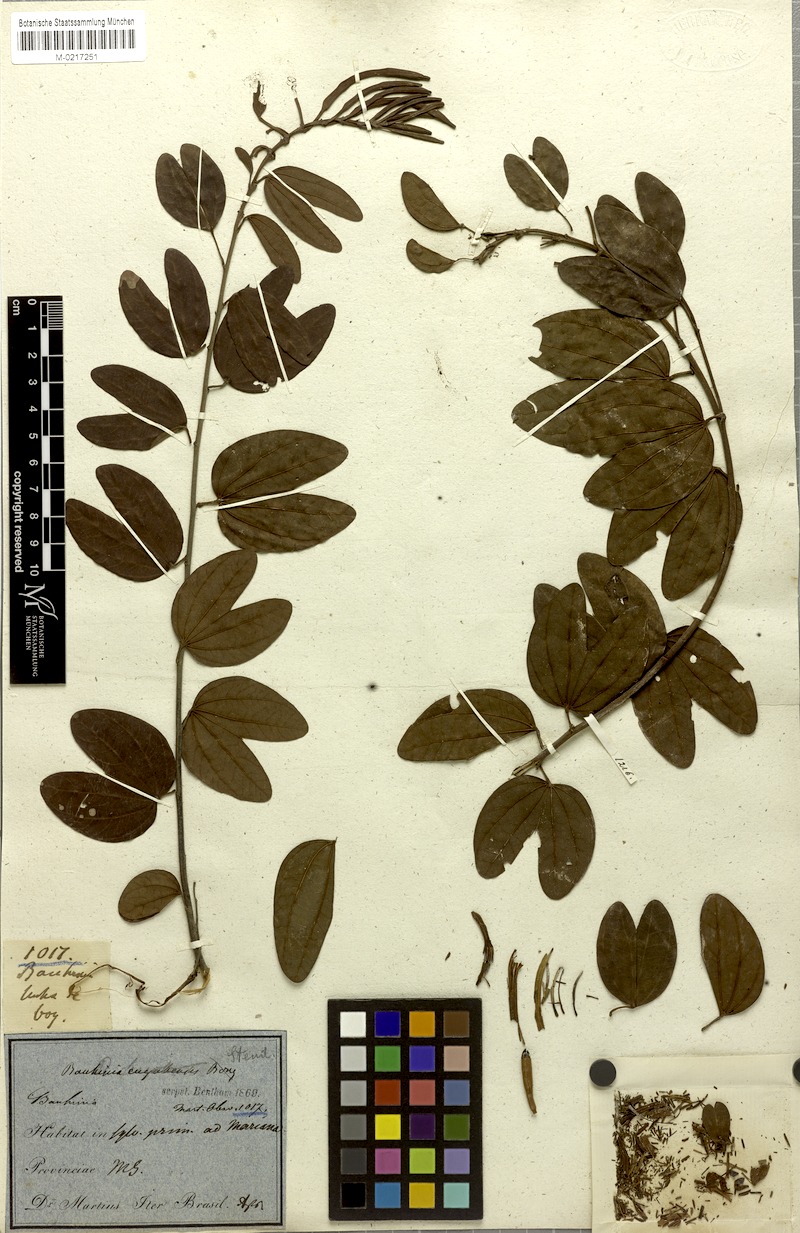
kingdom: Plantae
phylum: Tracheophyta
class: Magnoliopsida
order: Fabales
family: Fabaceae
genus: Bauhinia
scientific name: Bauhinia ungulata
